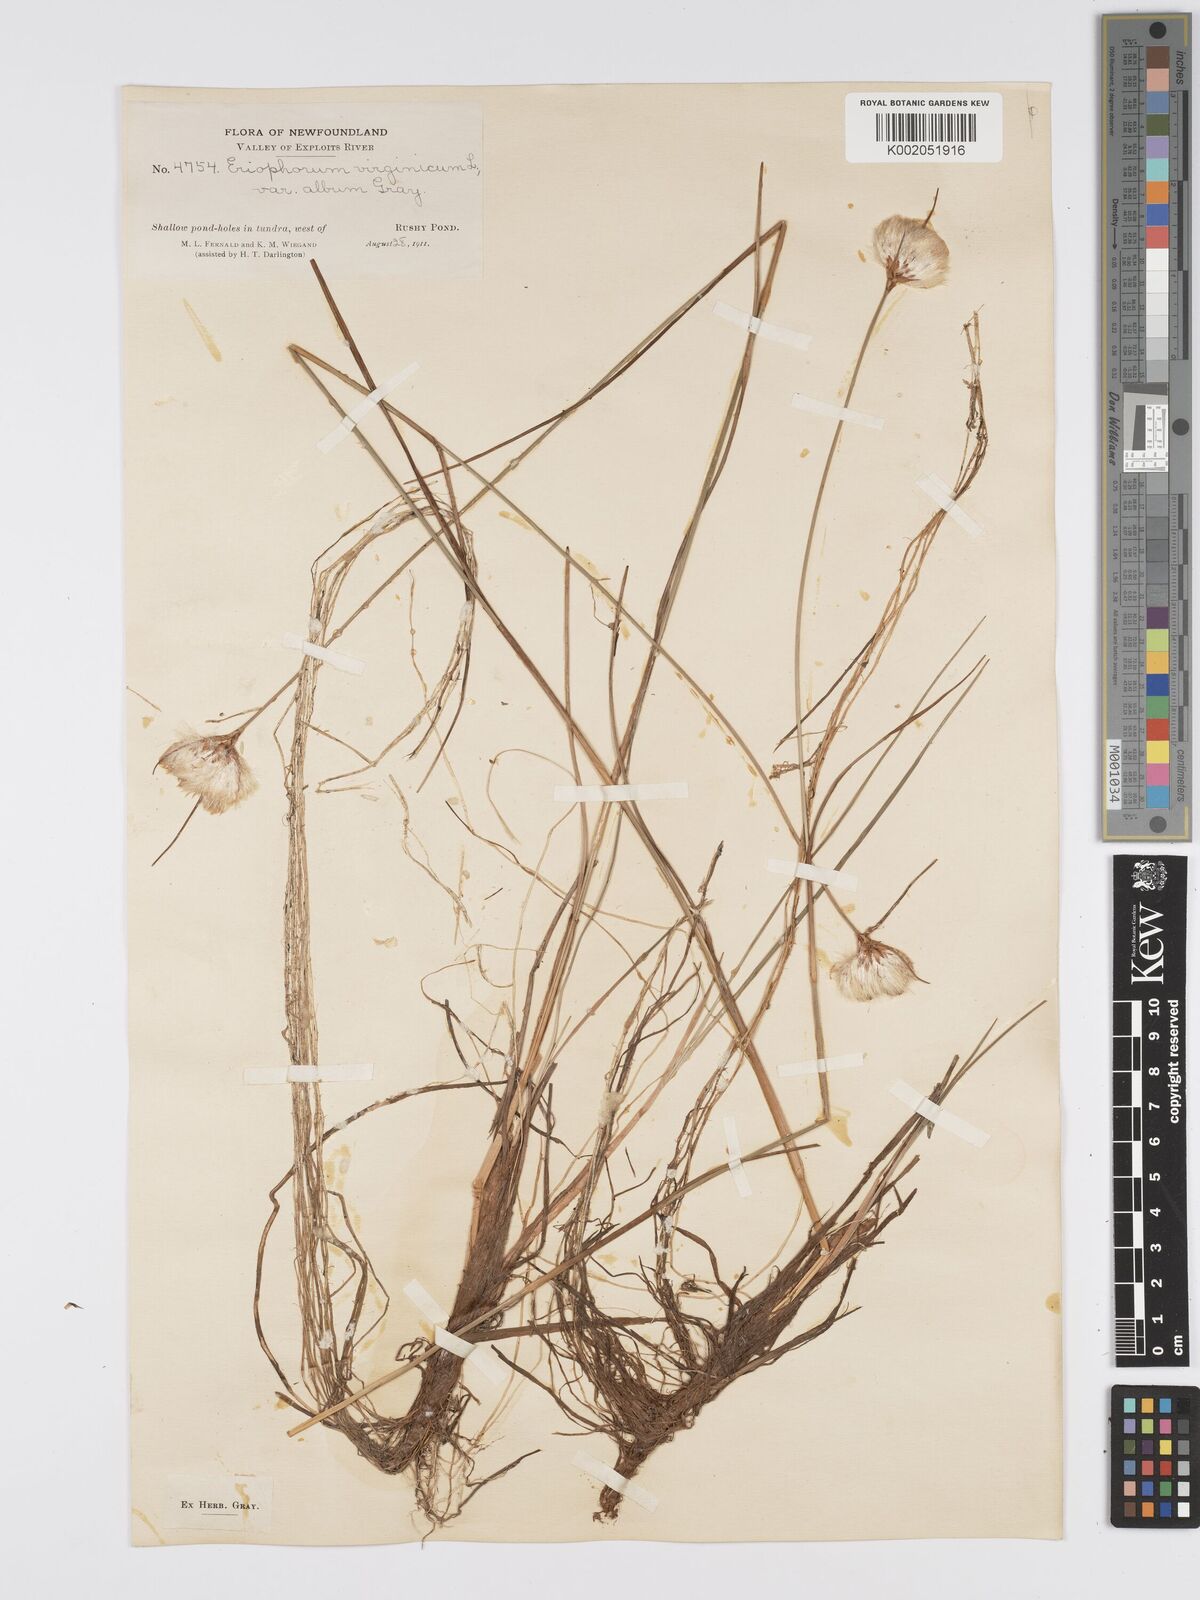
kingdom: Plantae
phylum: Tracheophyta
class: Liliopsida
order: Poales
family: Cyperaceae
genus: Eriophorum
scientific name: Eriophorum virginicum
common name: Tawny cottongrass
